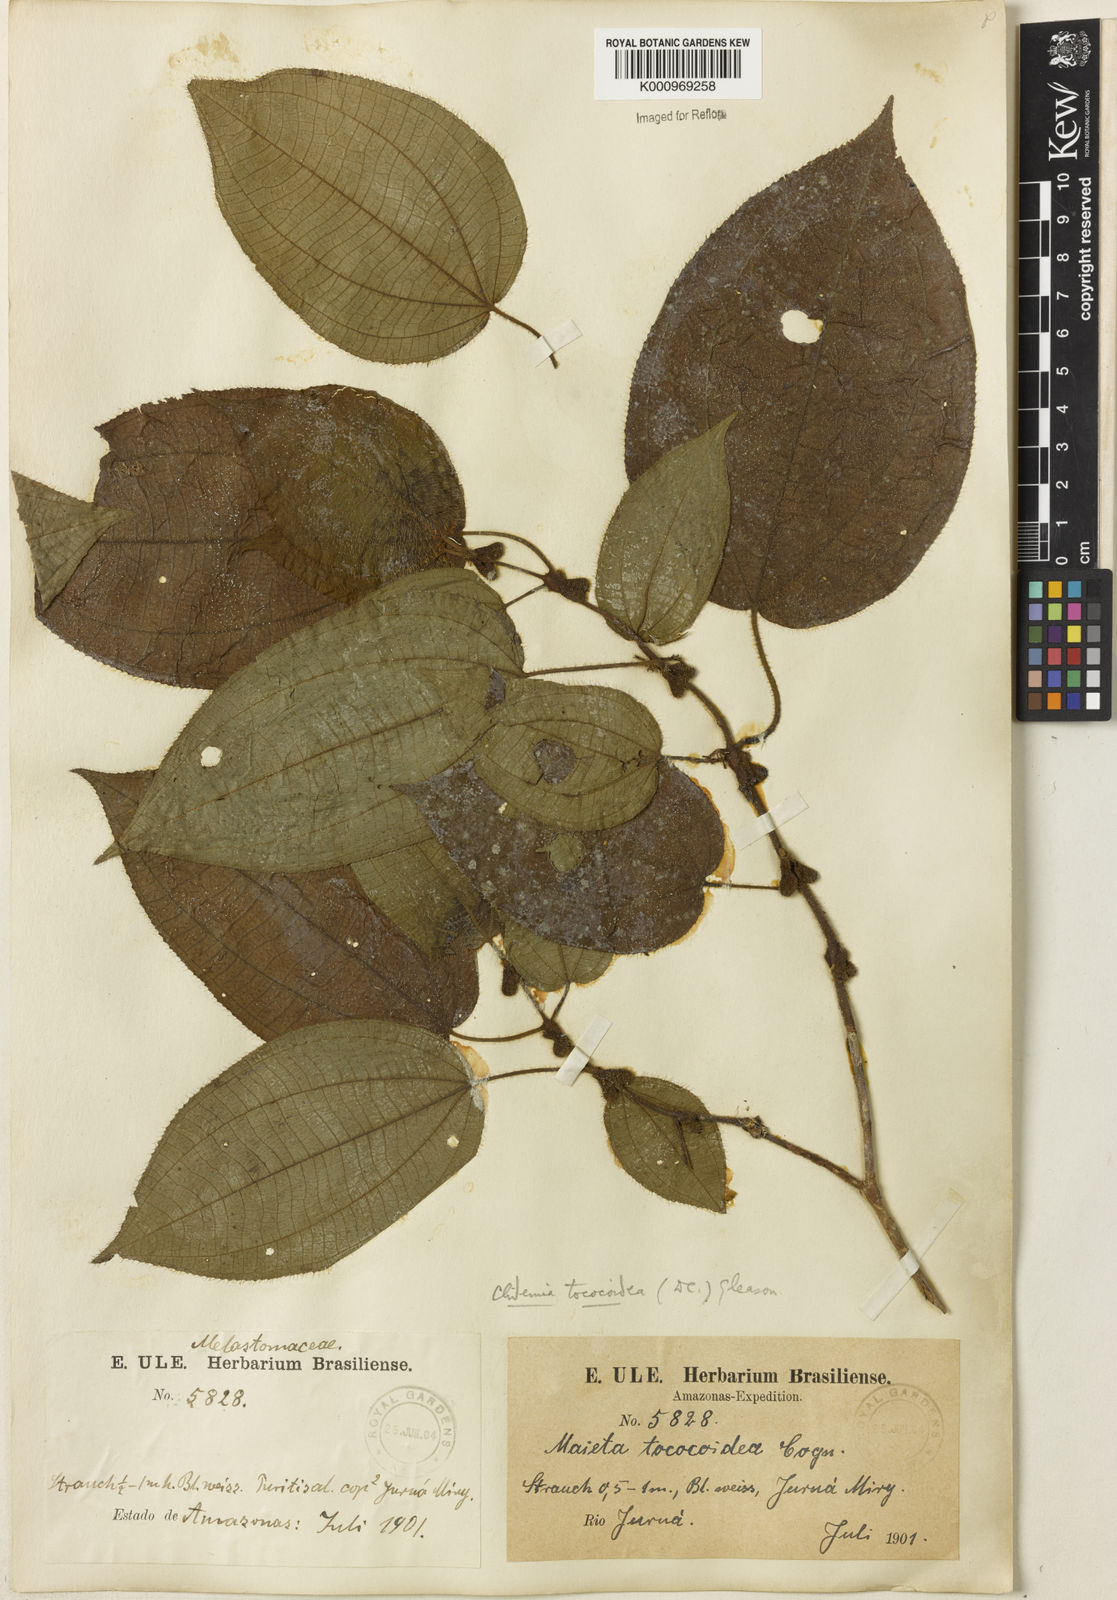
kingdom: Plantae
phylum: Tracheophyta
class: Magnoliopsida
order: Myrtales
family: Melastomataceae
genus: Miconia
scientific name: Miconia tococoidea
